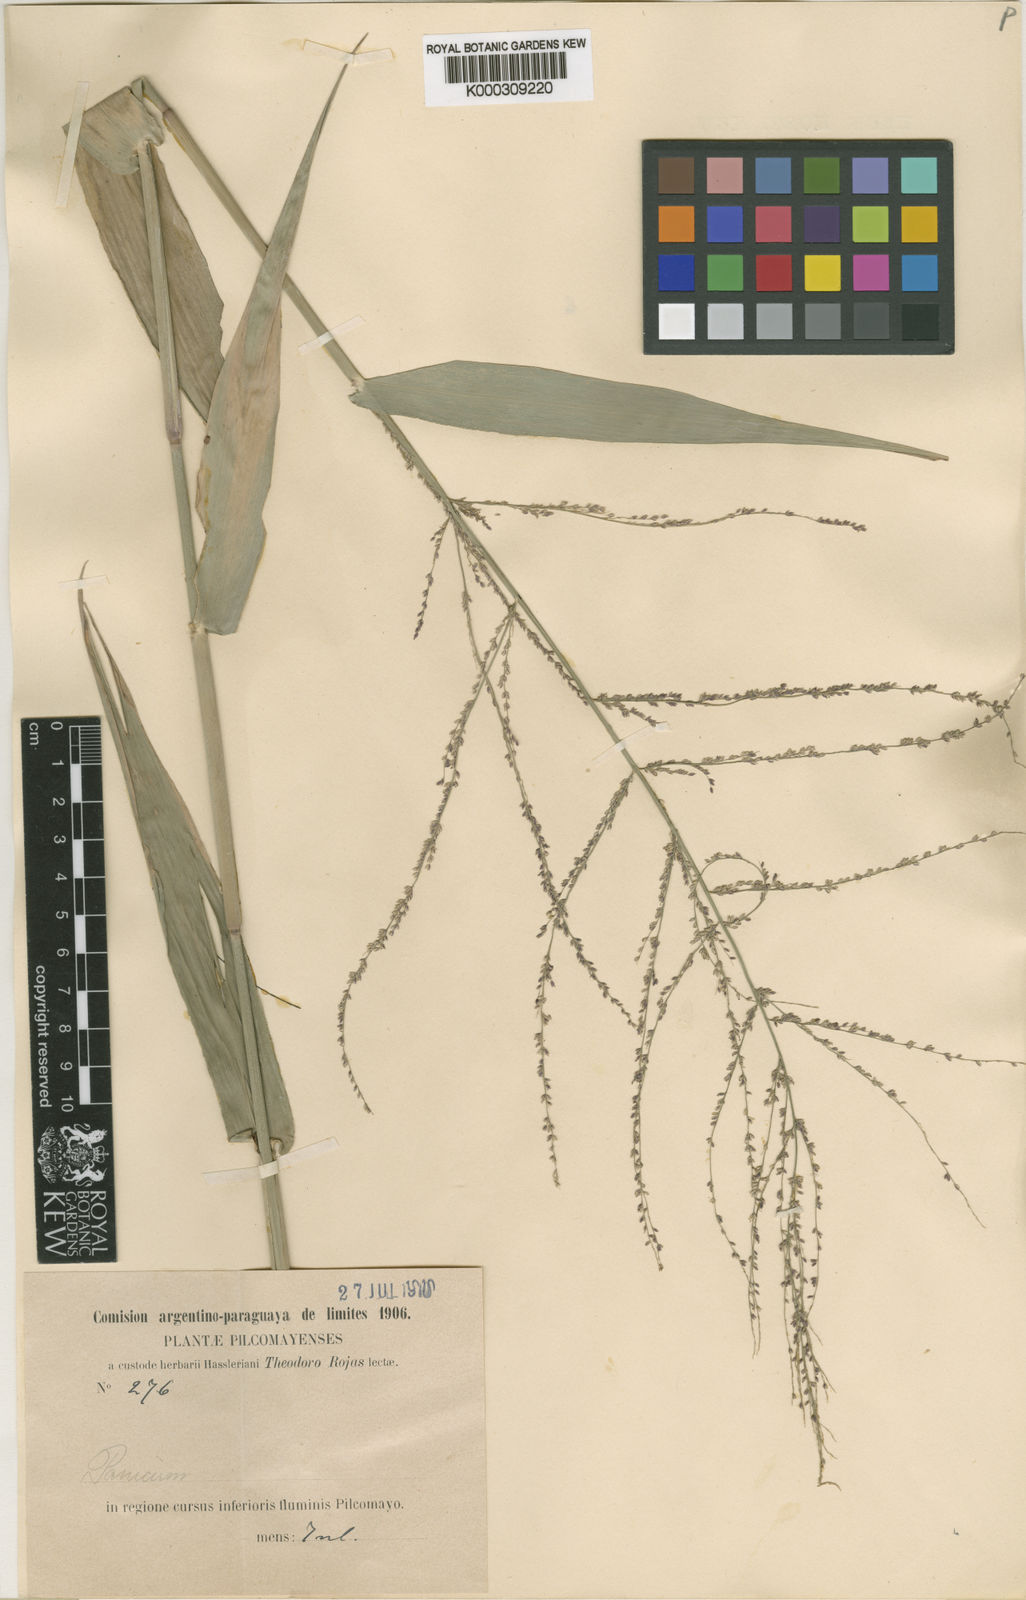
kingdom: Plantae
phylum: Tracheophyta
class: Liliopsida
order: Poales
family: Poaceae
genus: Rugoloa
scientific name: Rugoloa hylaeica
